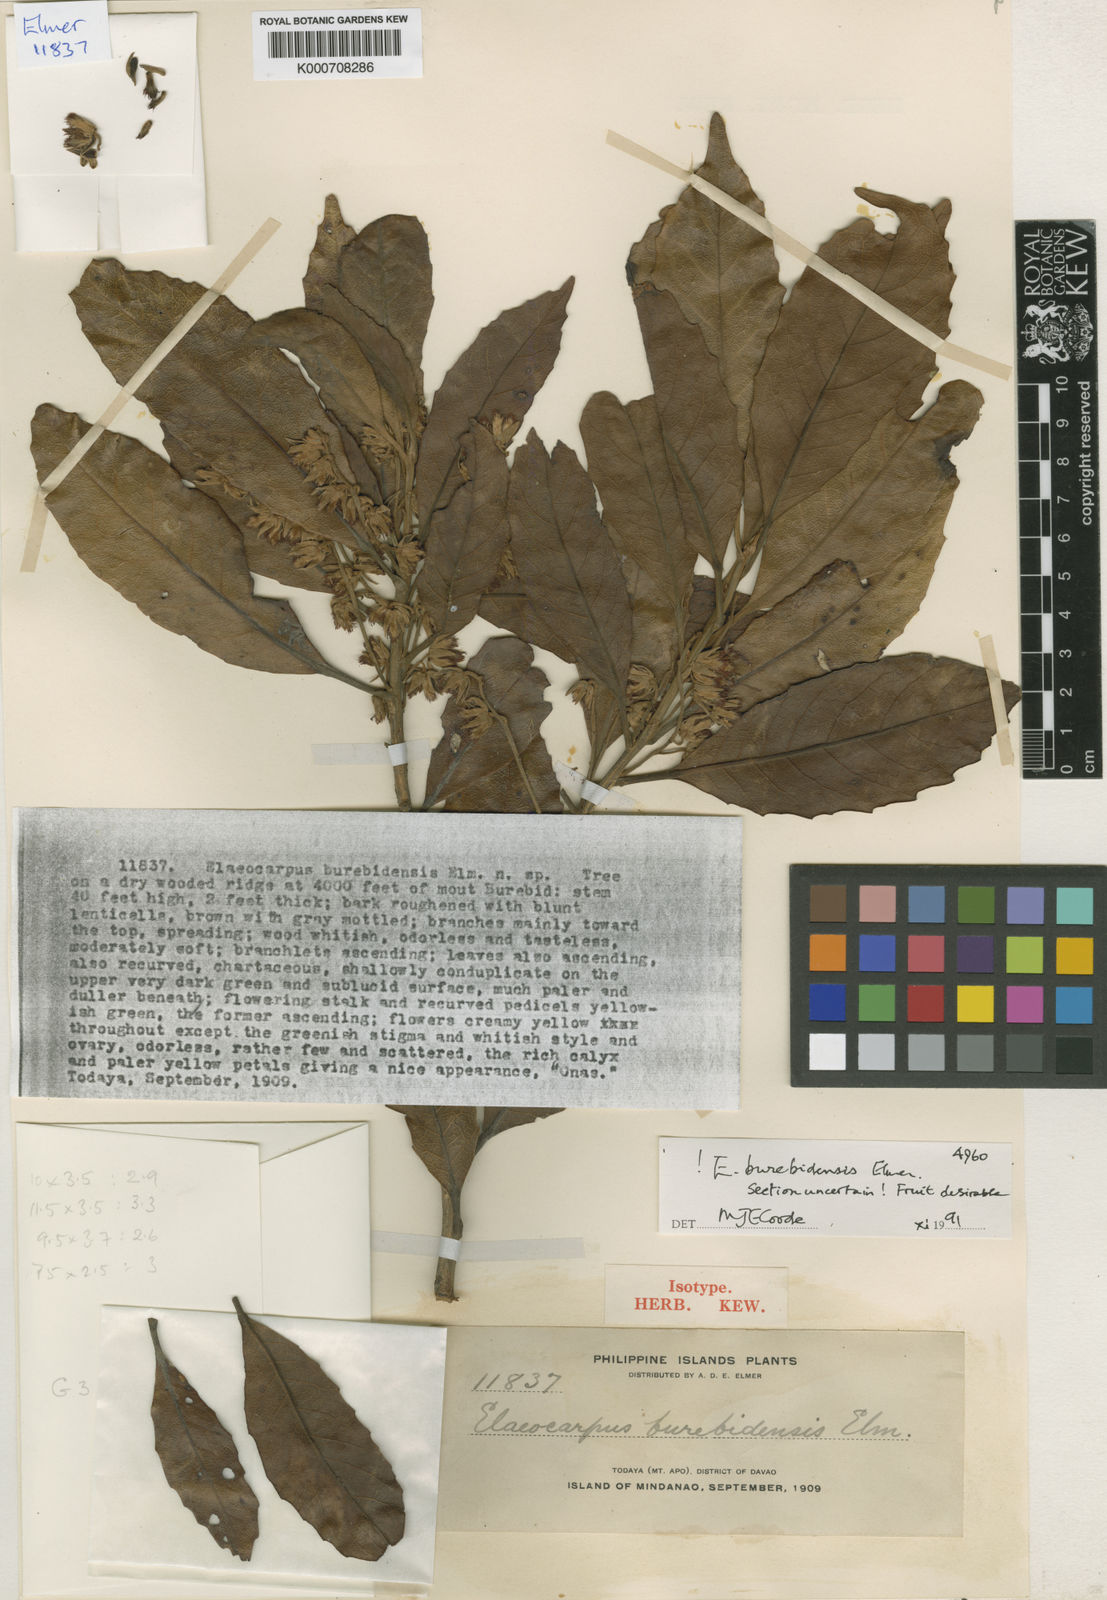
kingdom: Plantae
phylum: Tracheophyta
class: Magnoliopsida
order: Oxalidales
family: Elaeocarpaceae
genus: Elaeocarpus
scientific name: Elaeocarpus burebidensis
